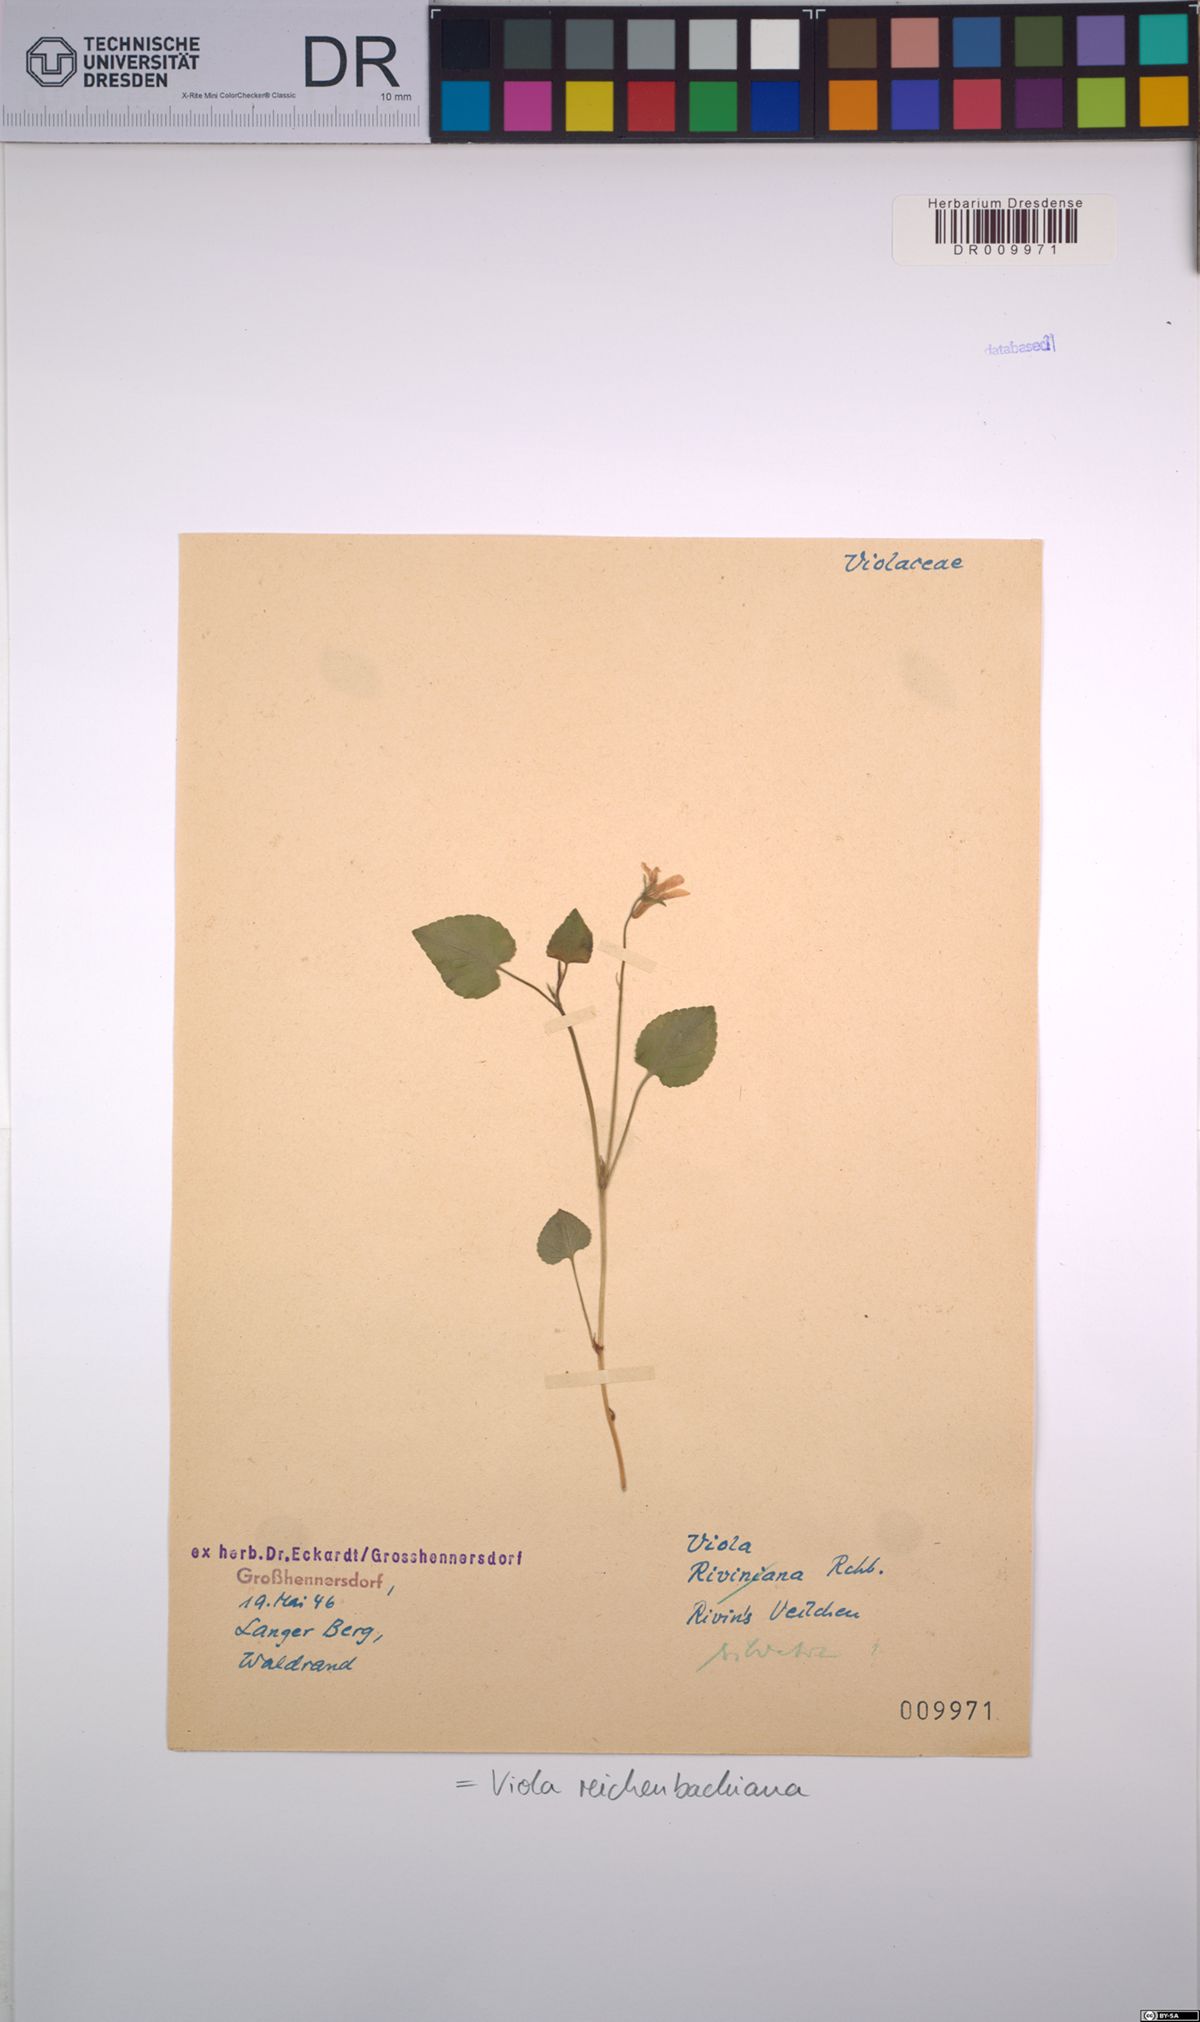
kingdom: Plantae
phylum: Tracheophyta
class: Magnoliopsida
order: Malpighiales
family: Violaceae
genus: Viola
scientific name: Viola reichenbachiana
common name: Early dog-violet
